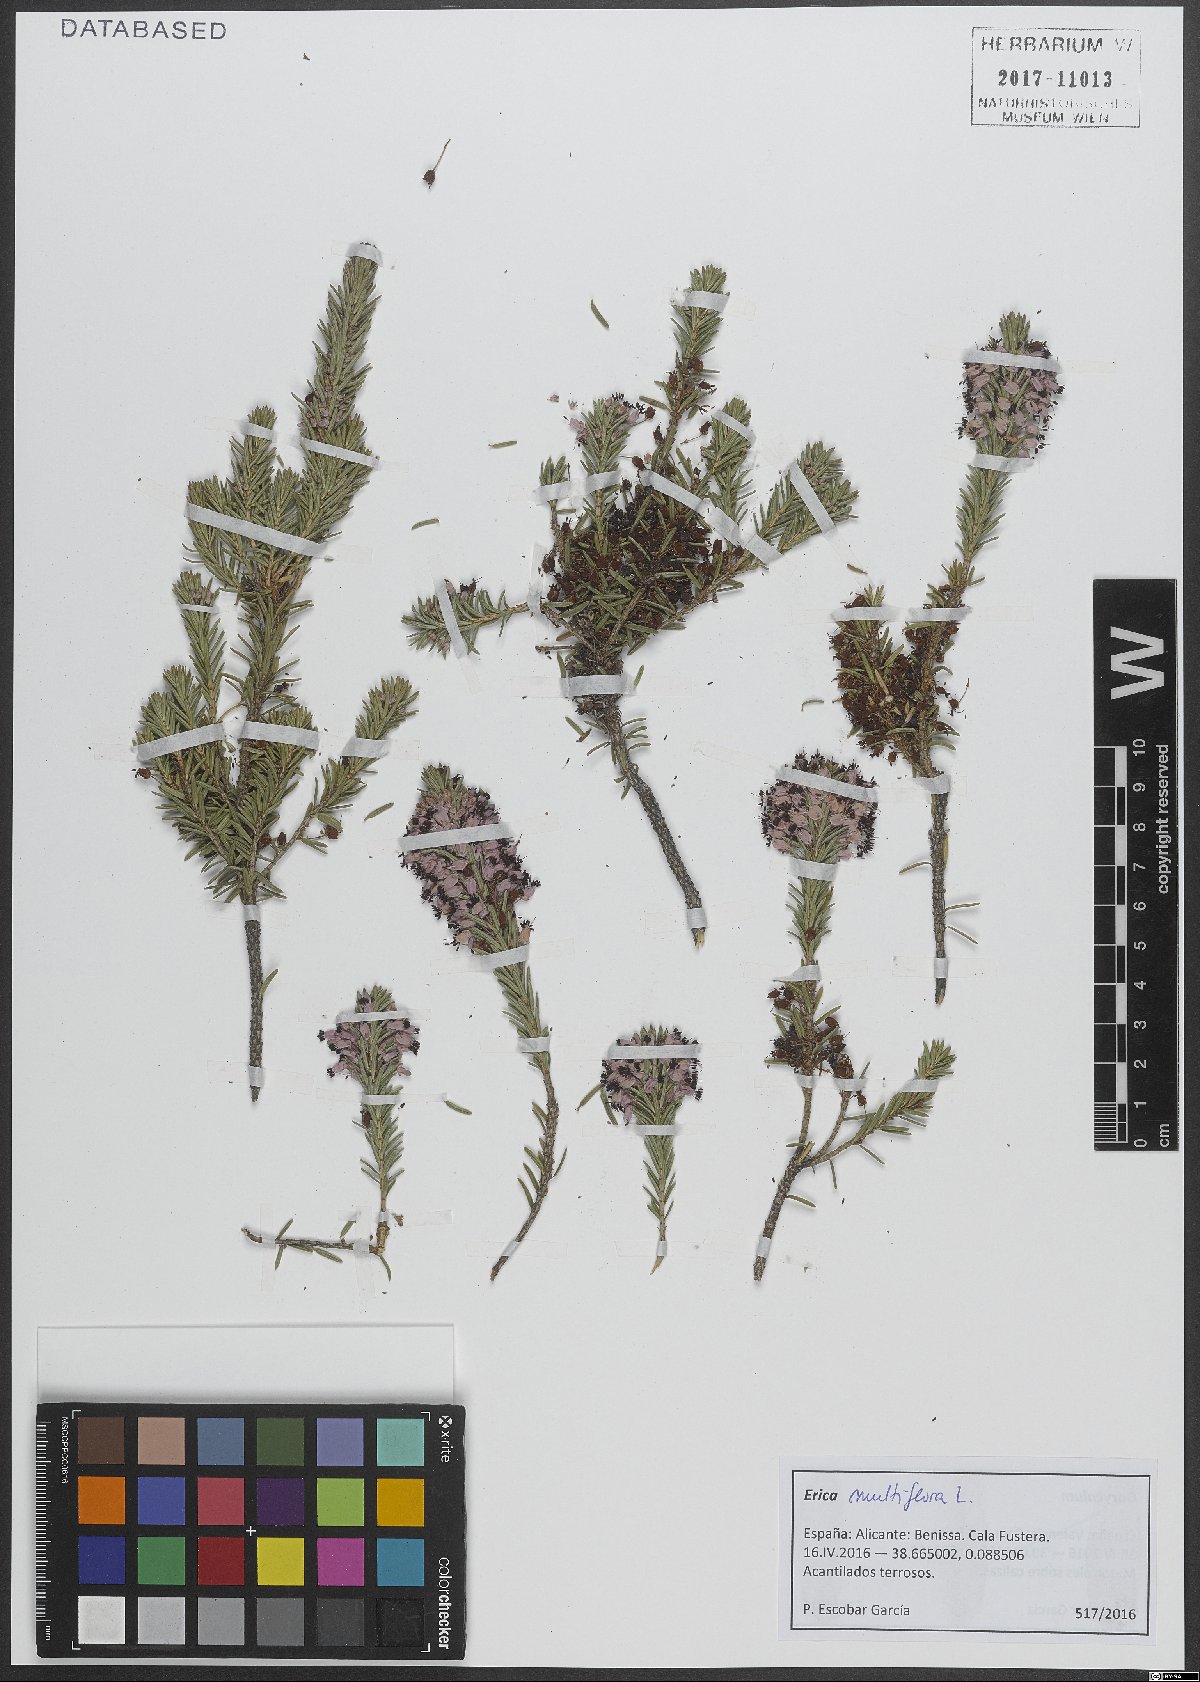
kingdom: Plantae
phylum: Tracheophyta
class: Magnoliopsida
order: Ericales
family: Ericaceae
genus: Erica
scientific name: Erica multiflora
